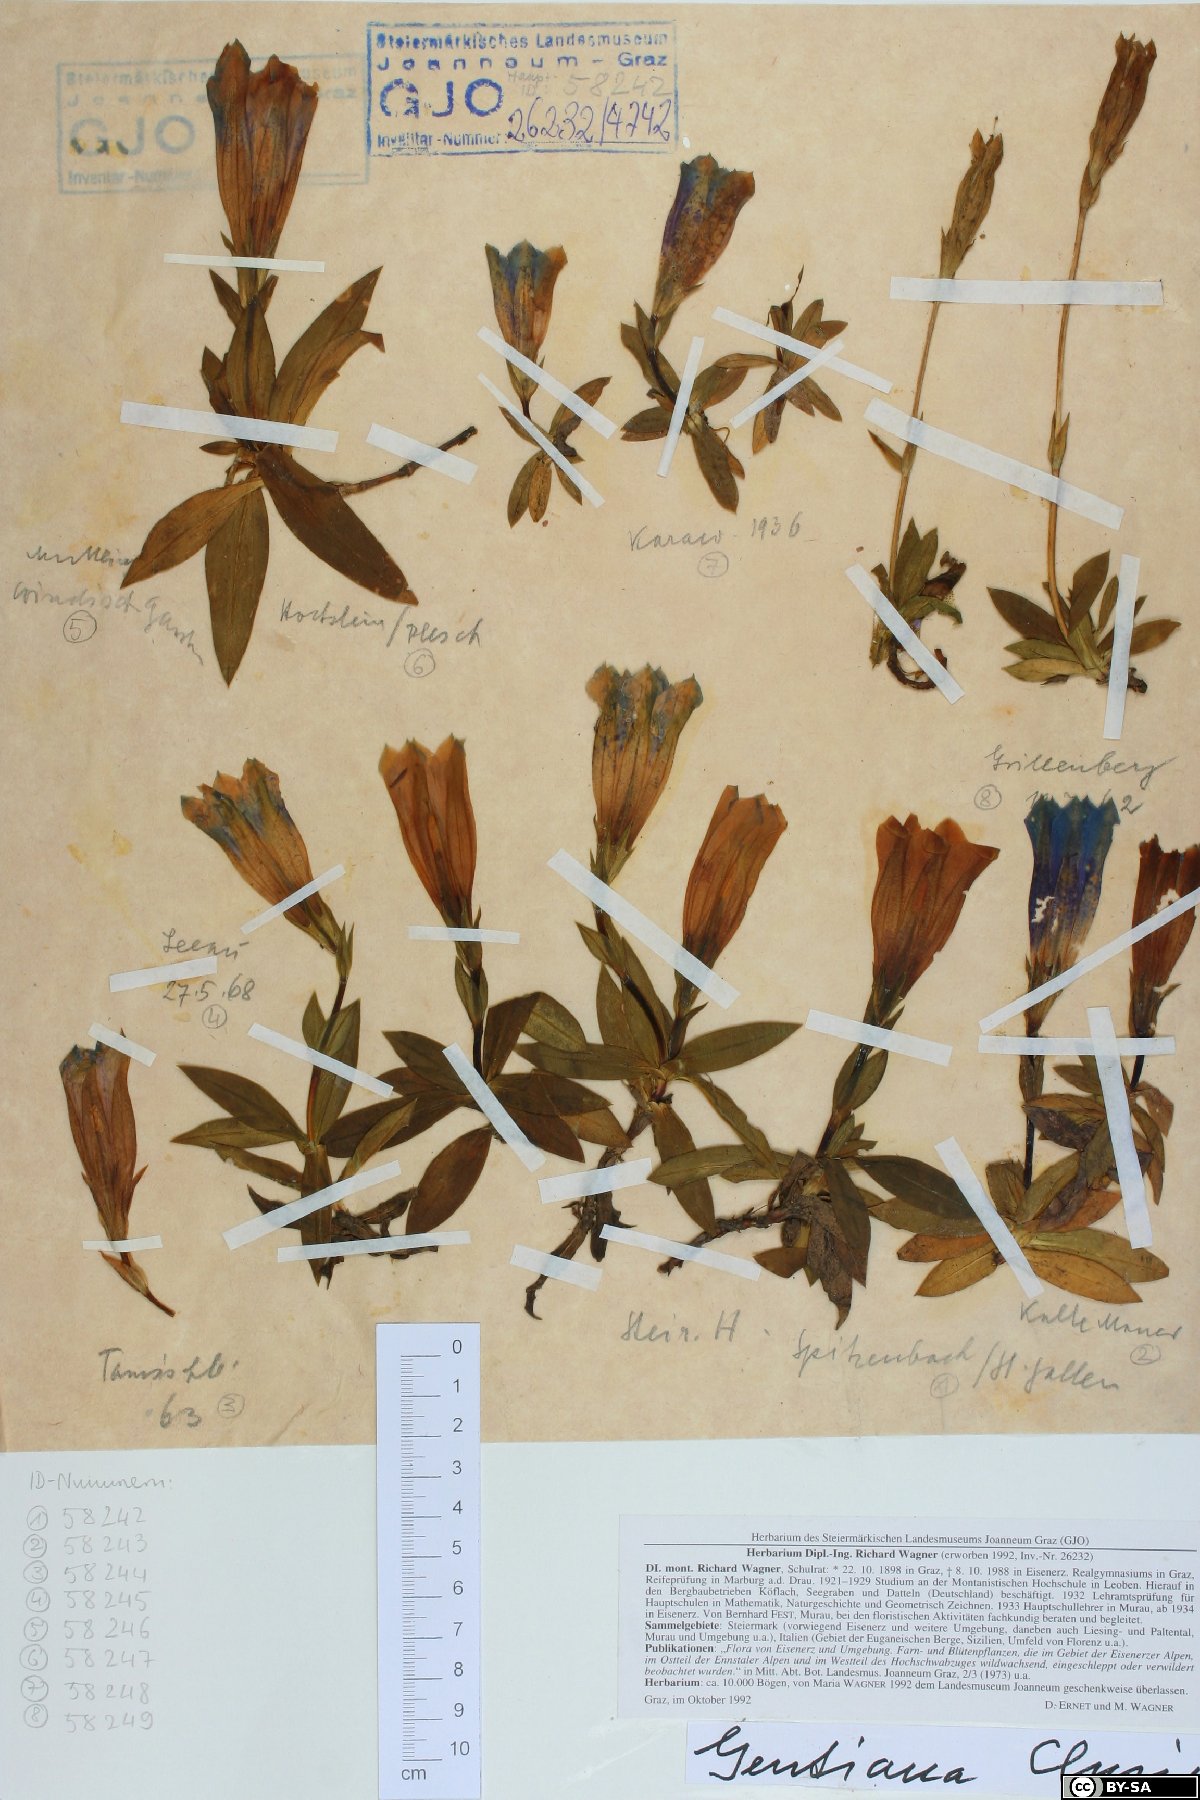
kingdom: Plantae
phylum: Tracheophyta
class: Magnoliopsida
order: Gentianales
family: Gentianaceae
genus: Gentiana
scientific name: Gentiana clusii
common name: Trumpet gentian
